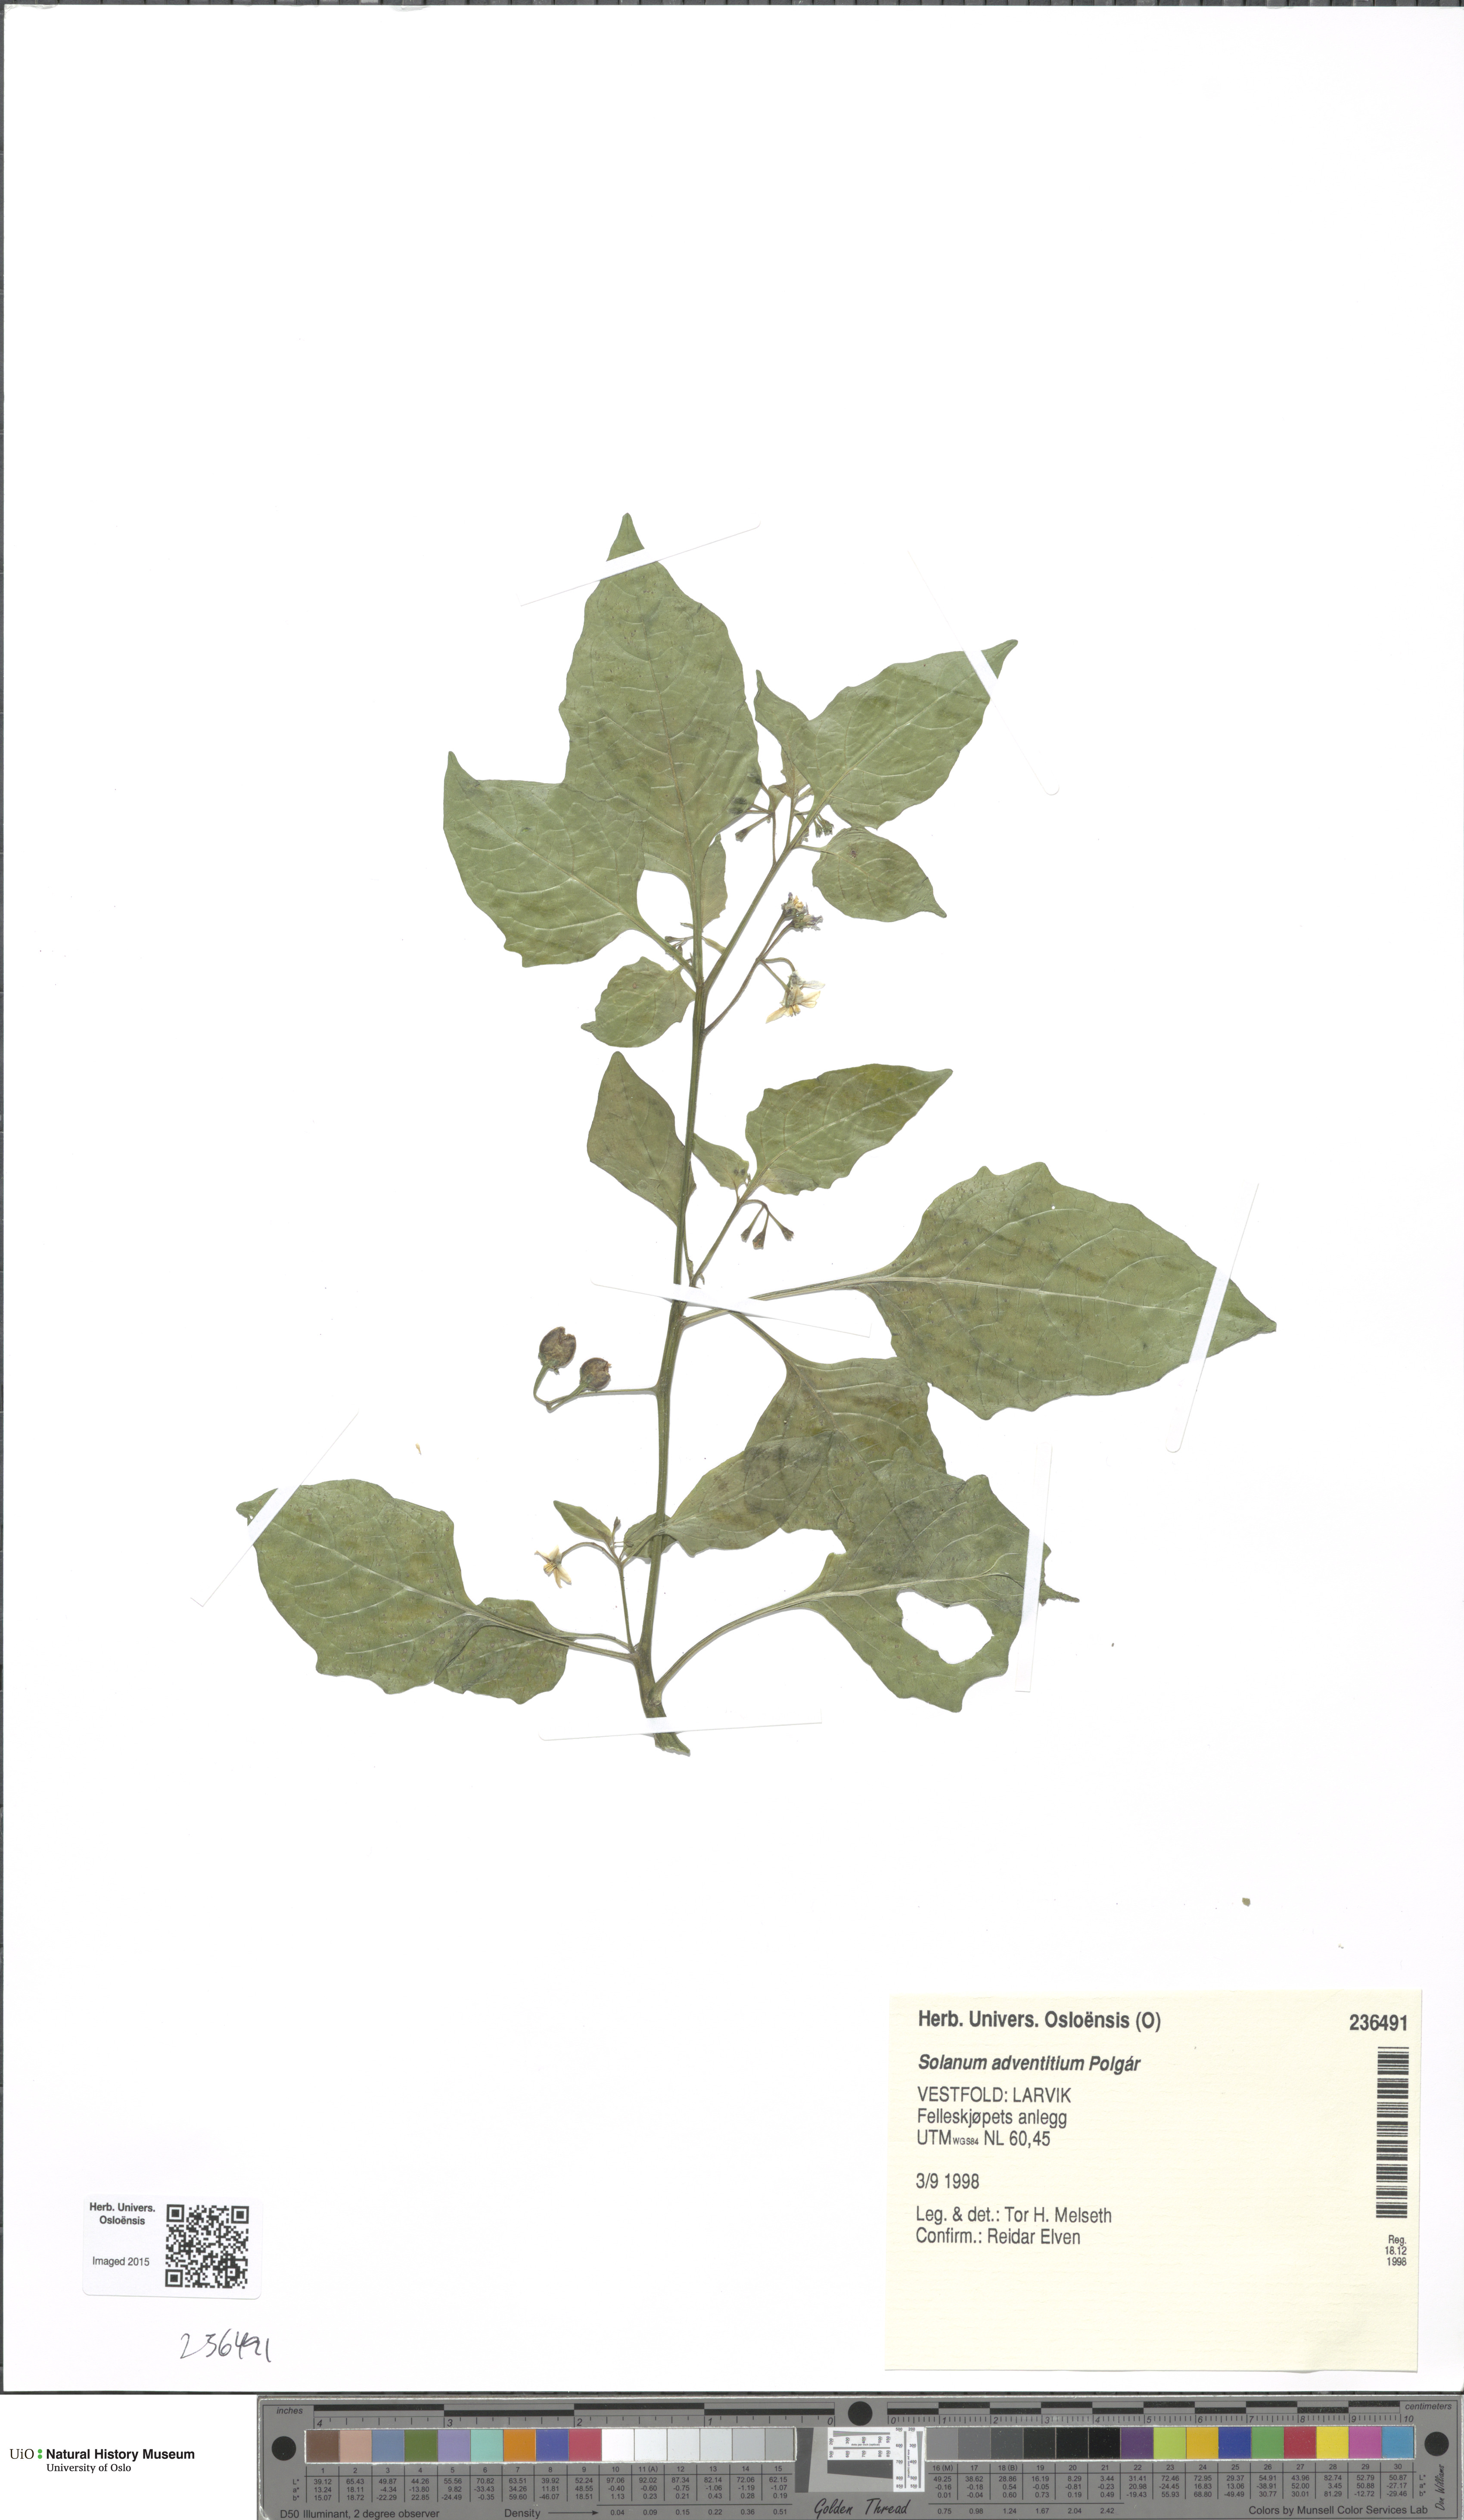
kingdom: Plantae
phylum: Tracheophyta
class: Magnoliopsida
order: Solanales
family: Solanaceae
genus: Solanum
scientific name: Solanum americanum
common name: American black nightshade
